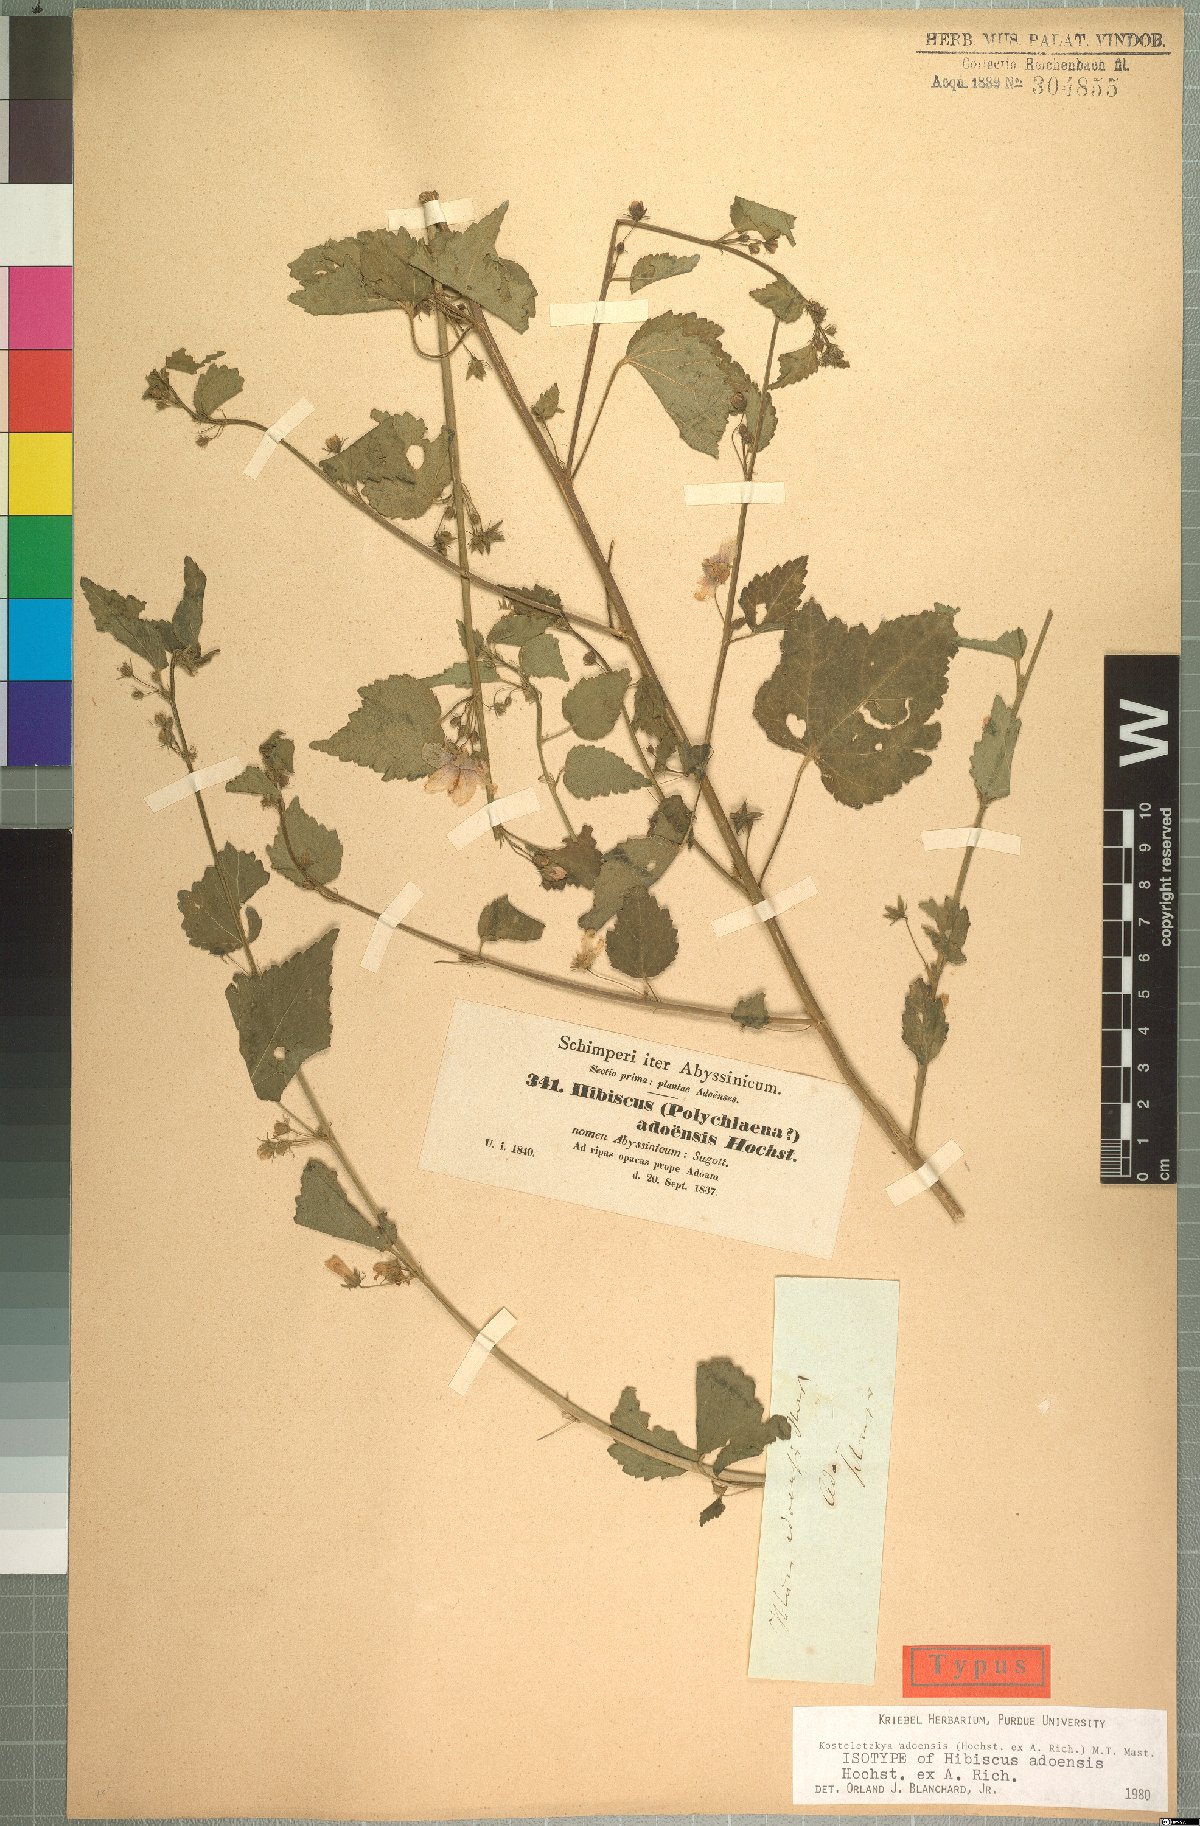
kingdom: Plantae
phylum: Tracheophyta
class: Magnoliopsida
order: Malvales
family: Malvaceae
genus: Kosteletzkya
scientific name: Kosteletzkya adoensis
